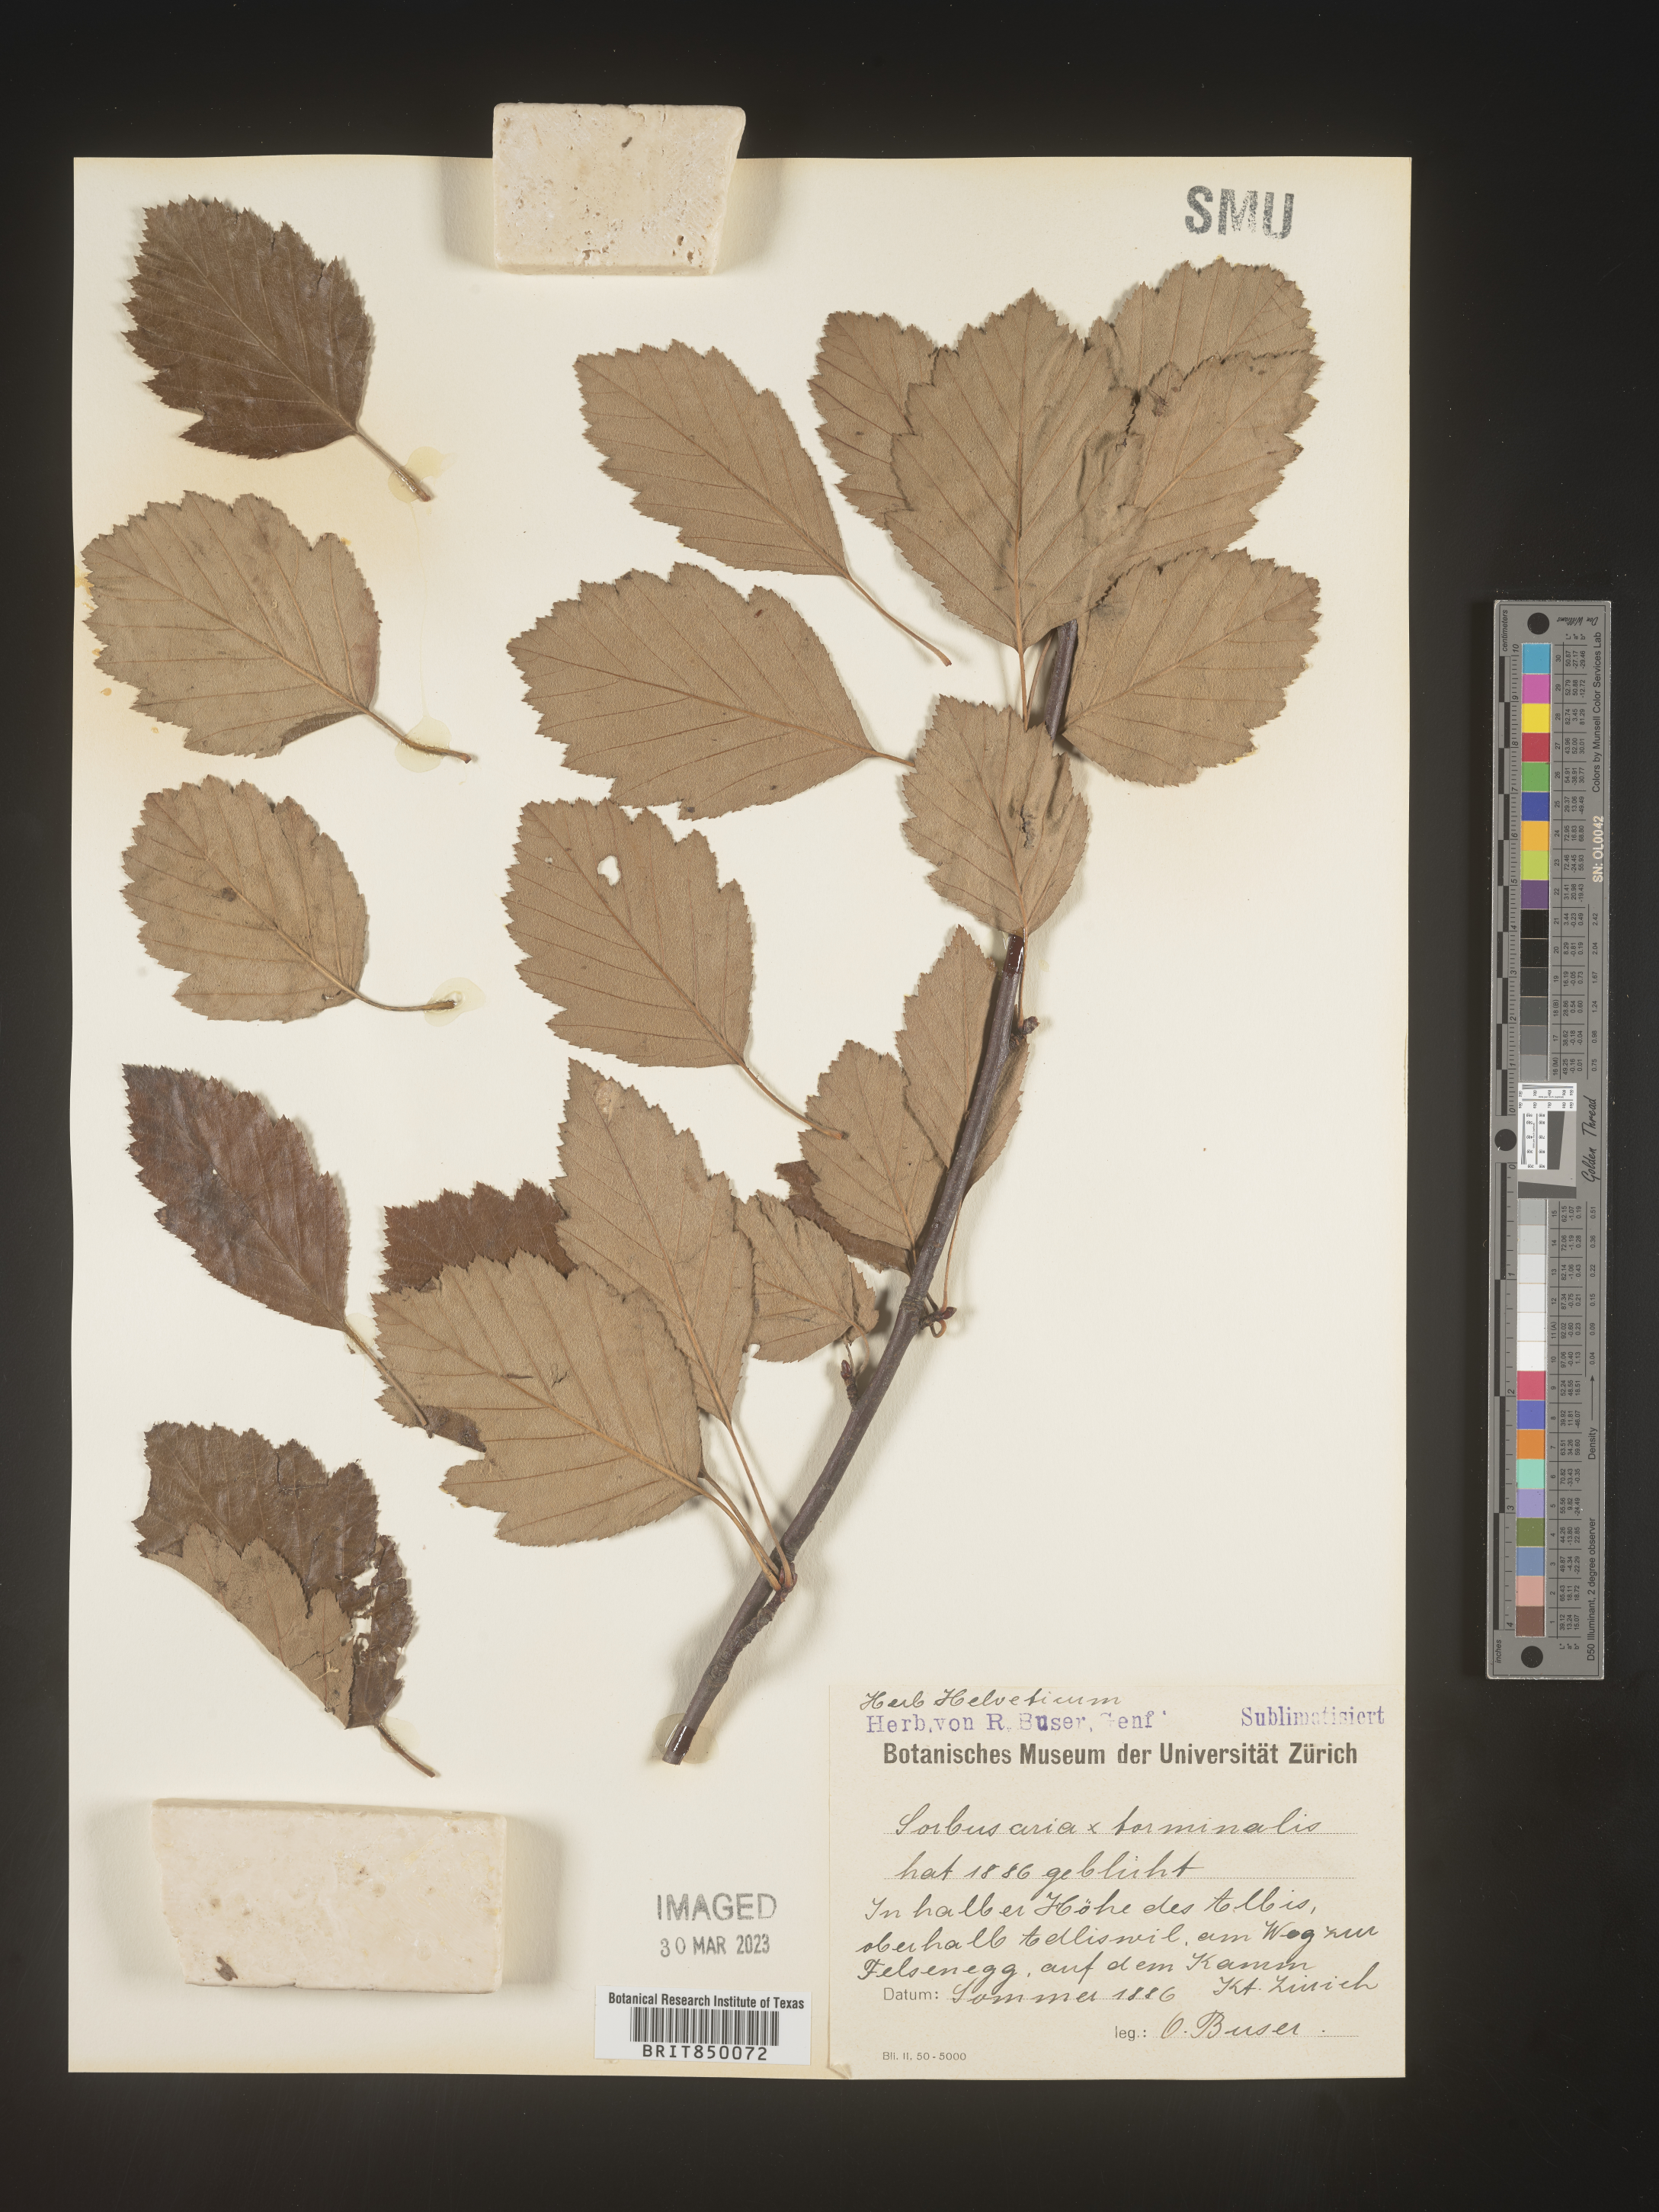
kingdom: Plantae
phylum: Tracheophyta
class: Magnoliopsida
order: Rosales
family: Rosaceae
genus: Sorbus
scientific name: Sorbus
